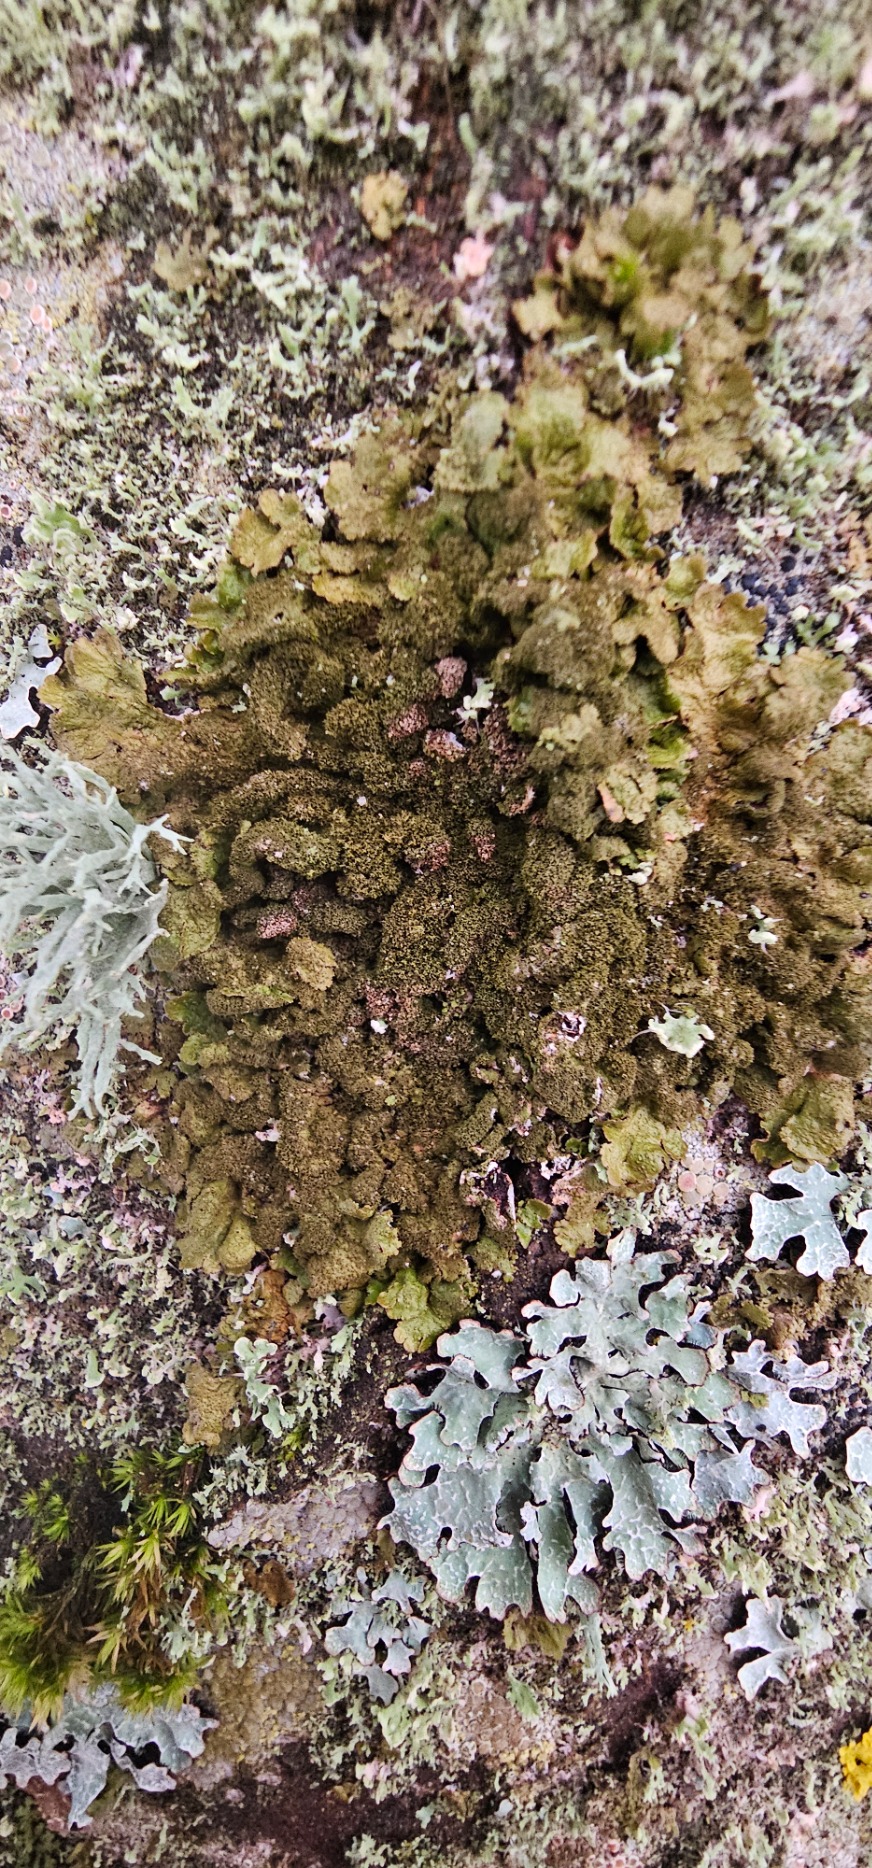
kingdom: Fungi
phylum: Ascomycota
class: Lecanoromycetes
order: Lecanorales
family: Parmeliaceae
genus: Melanelixia
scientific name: Melanelixia glabratula
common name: Glinsende skållav
